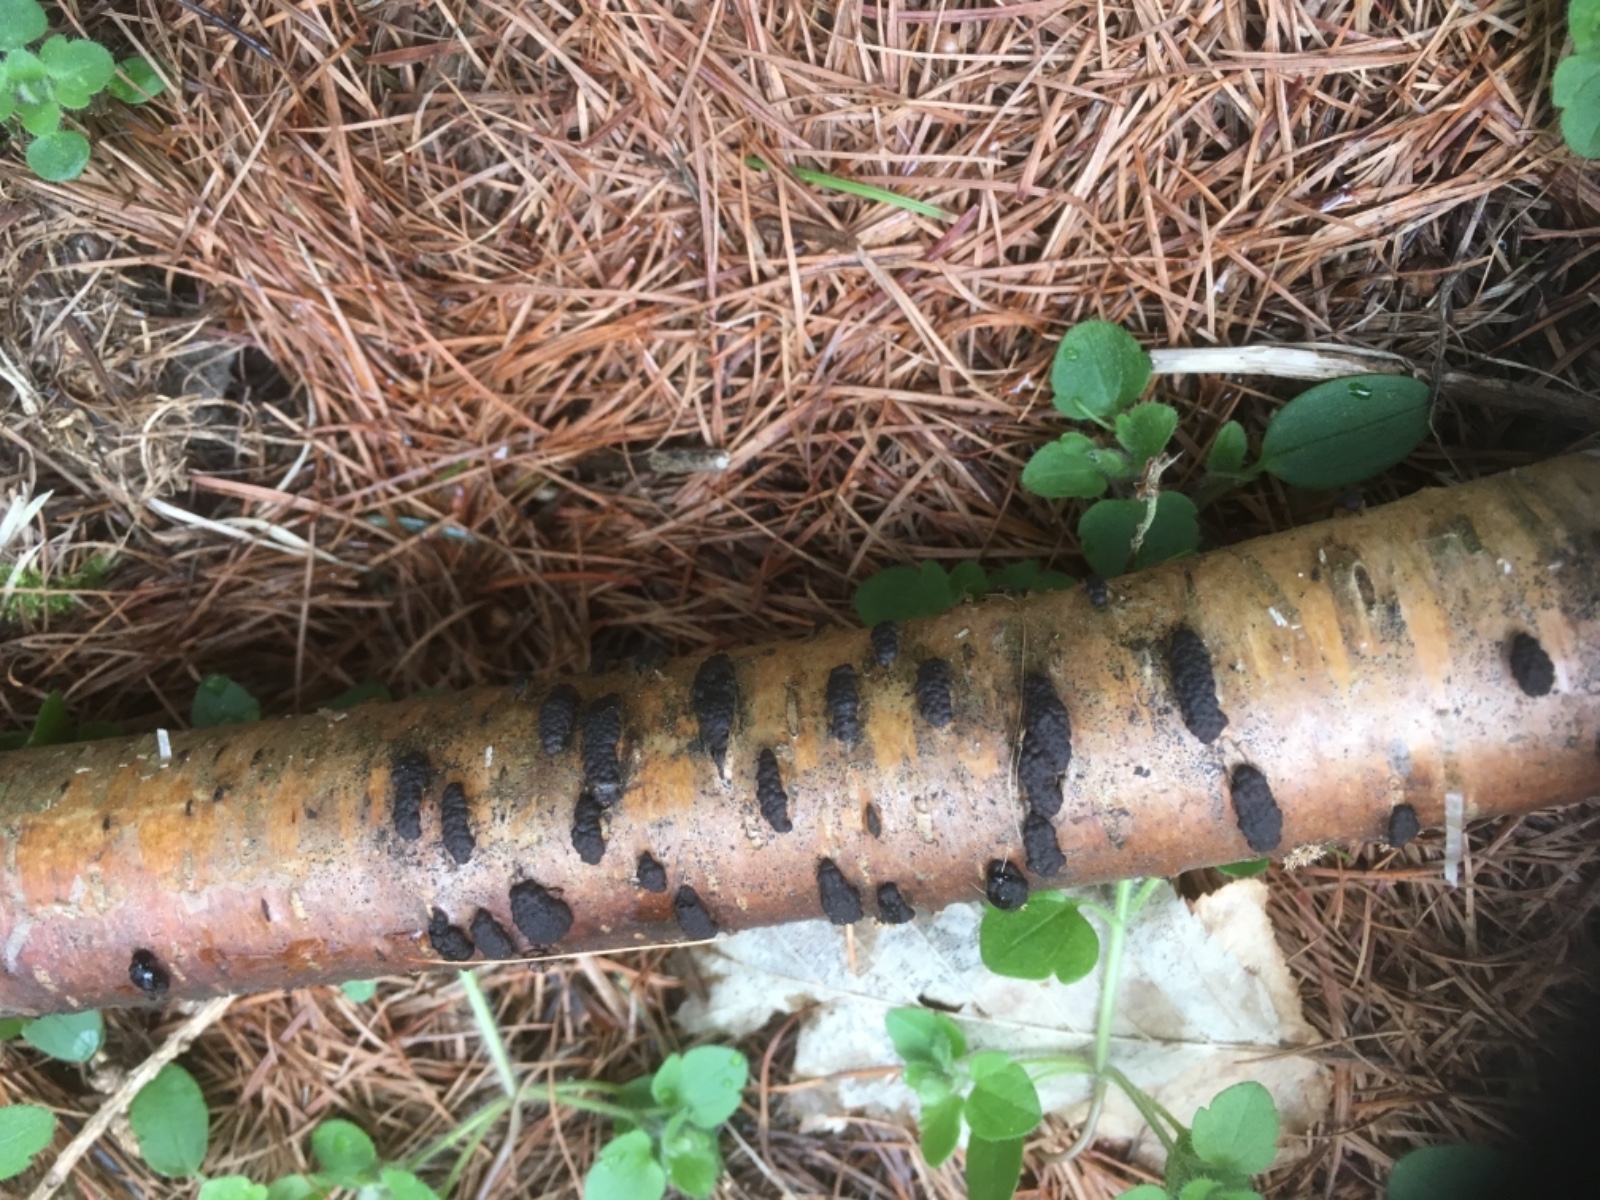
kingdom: Fungi
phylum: Ascomycota
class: Sordariomycetes
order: Xylariales
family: Hypoxylaceae
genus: Jackrogersella
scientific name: Jackrogersella multiformis
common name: foranderlig kulbær
